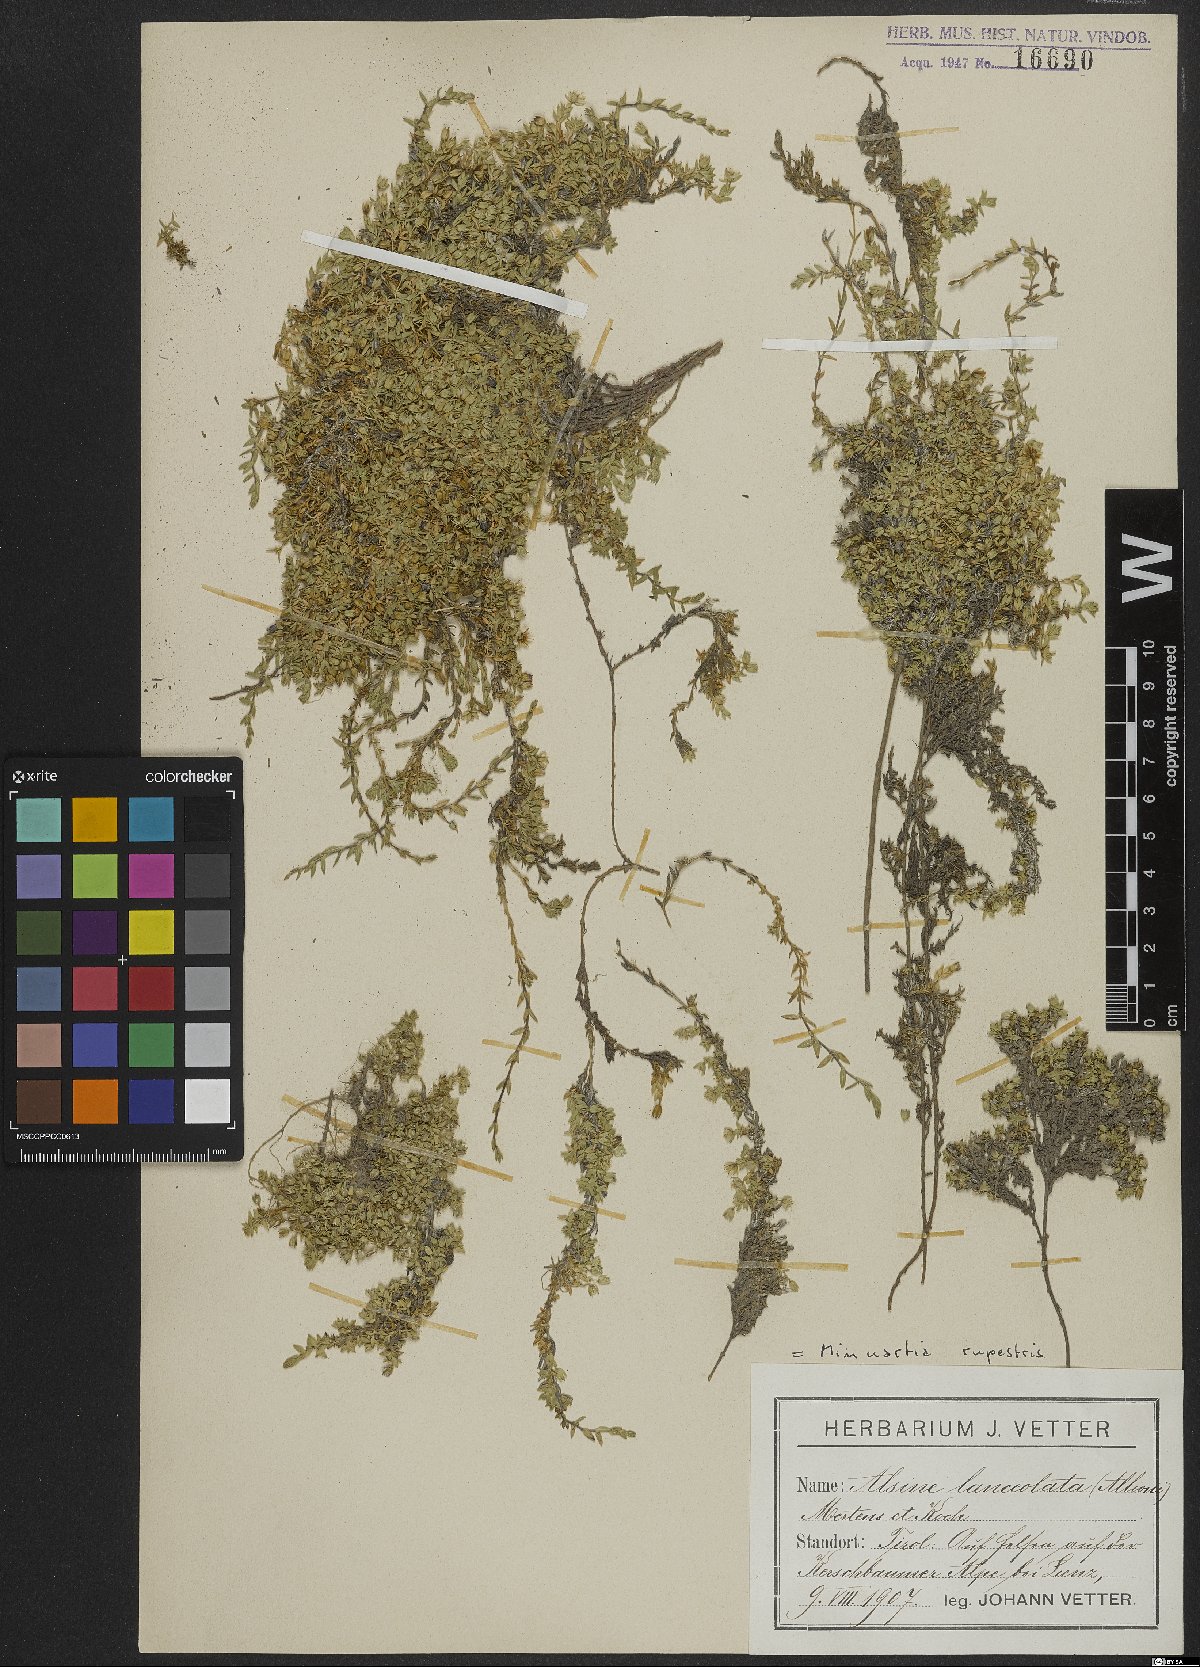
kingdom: Plantae
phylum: Tracheophyta
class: Magnoliopsida
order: Caryophyllales
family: Caryophyllaceae
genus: Facchinia
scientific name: Facchinia rupestris
